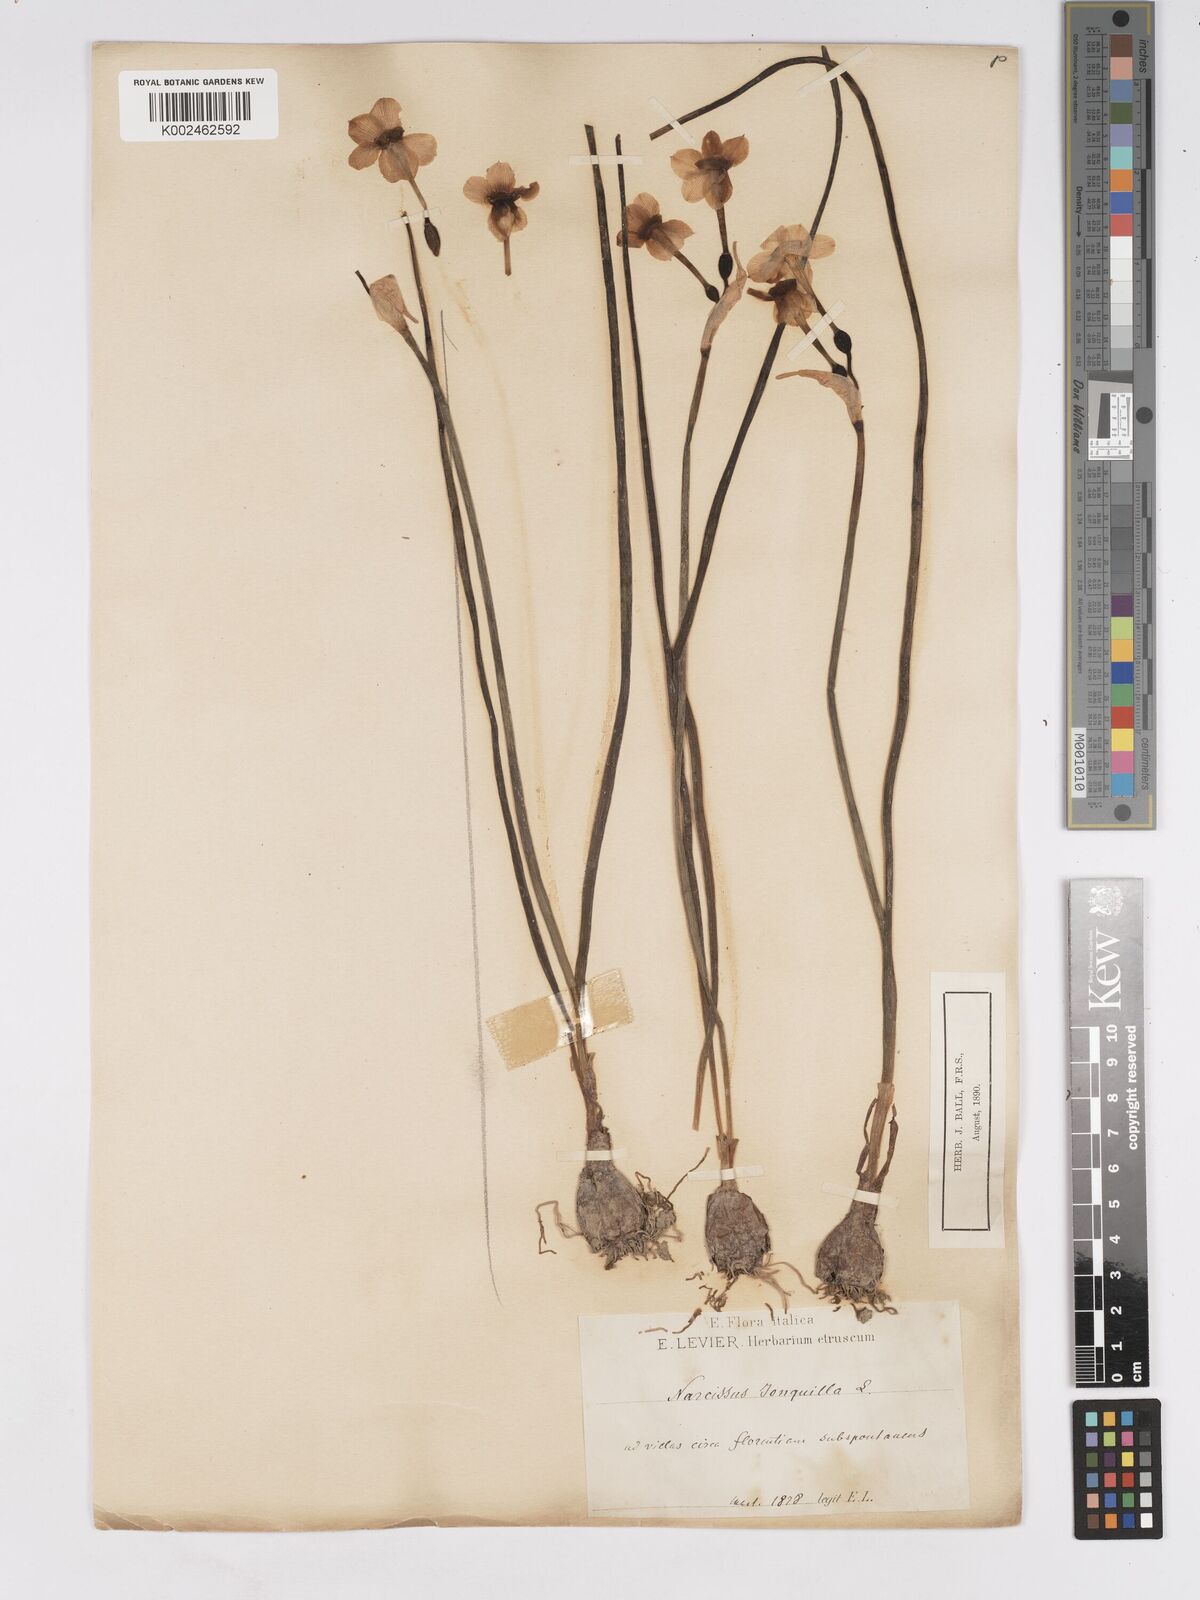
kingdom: Plantae
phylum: Tracheophyta
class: Liliopsida
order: Asparagales
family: Amaryllidaceae
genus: Narcissus
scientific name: Narcissus jonquilla
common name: Jonquil
